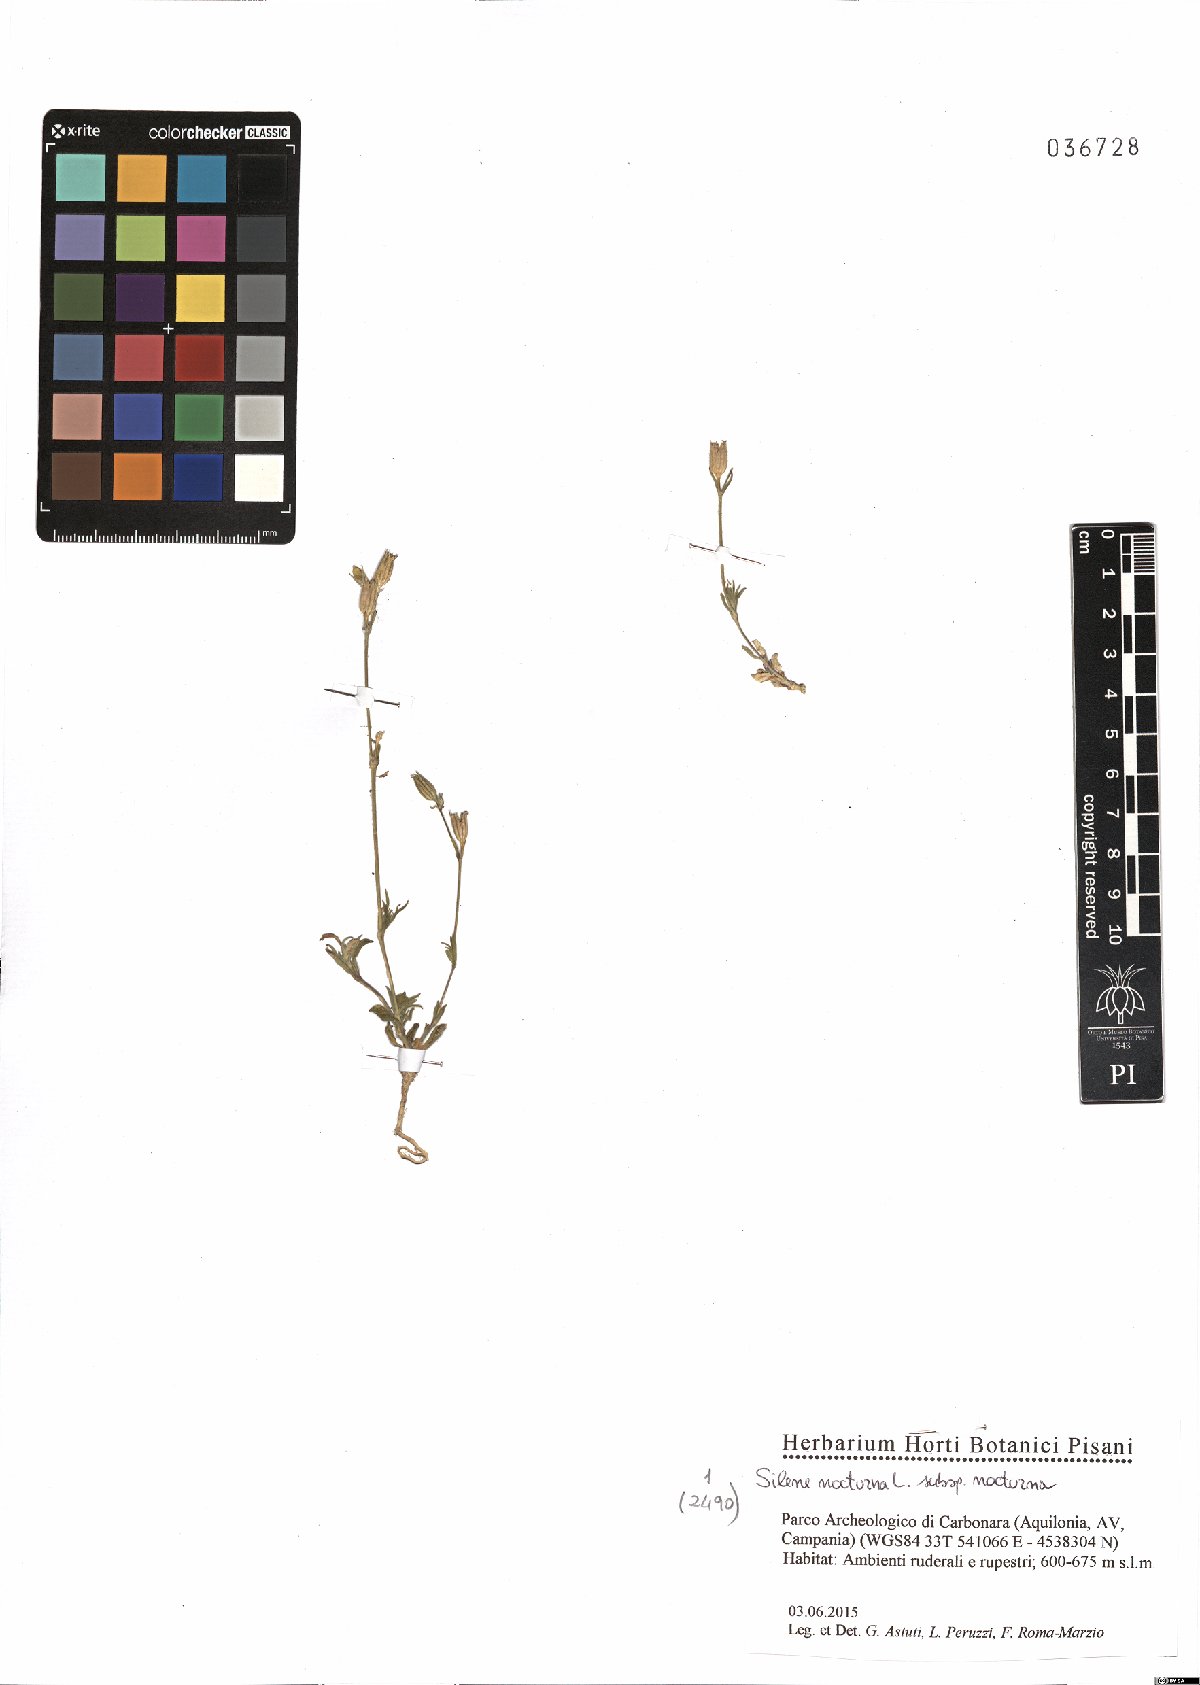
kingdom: Plantae
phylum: Tracheophyta
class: Magnoliopsida
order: Caryophyllales
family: Caryophyllaceae
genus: Silene
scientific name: Silene nocturna
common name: Mediterranean catchfly
